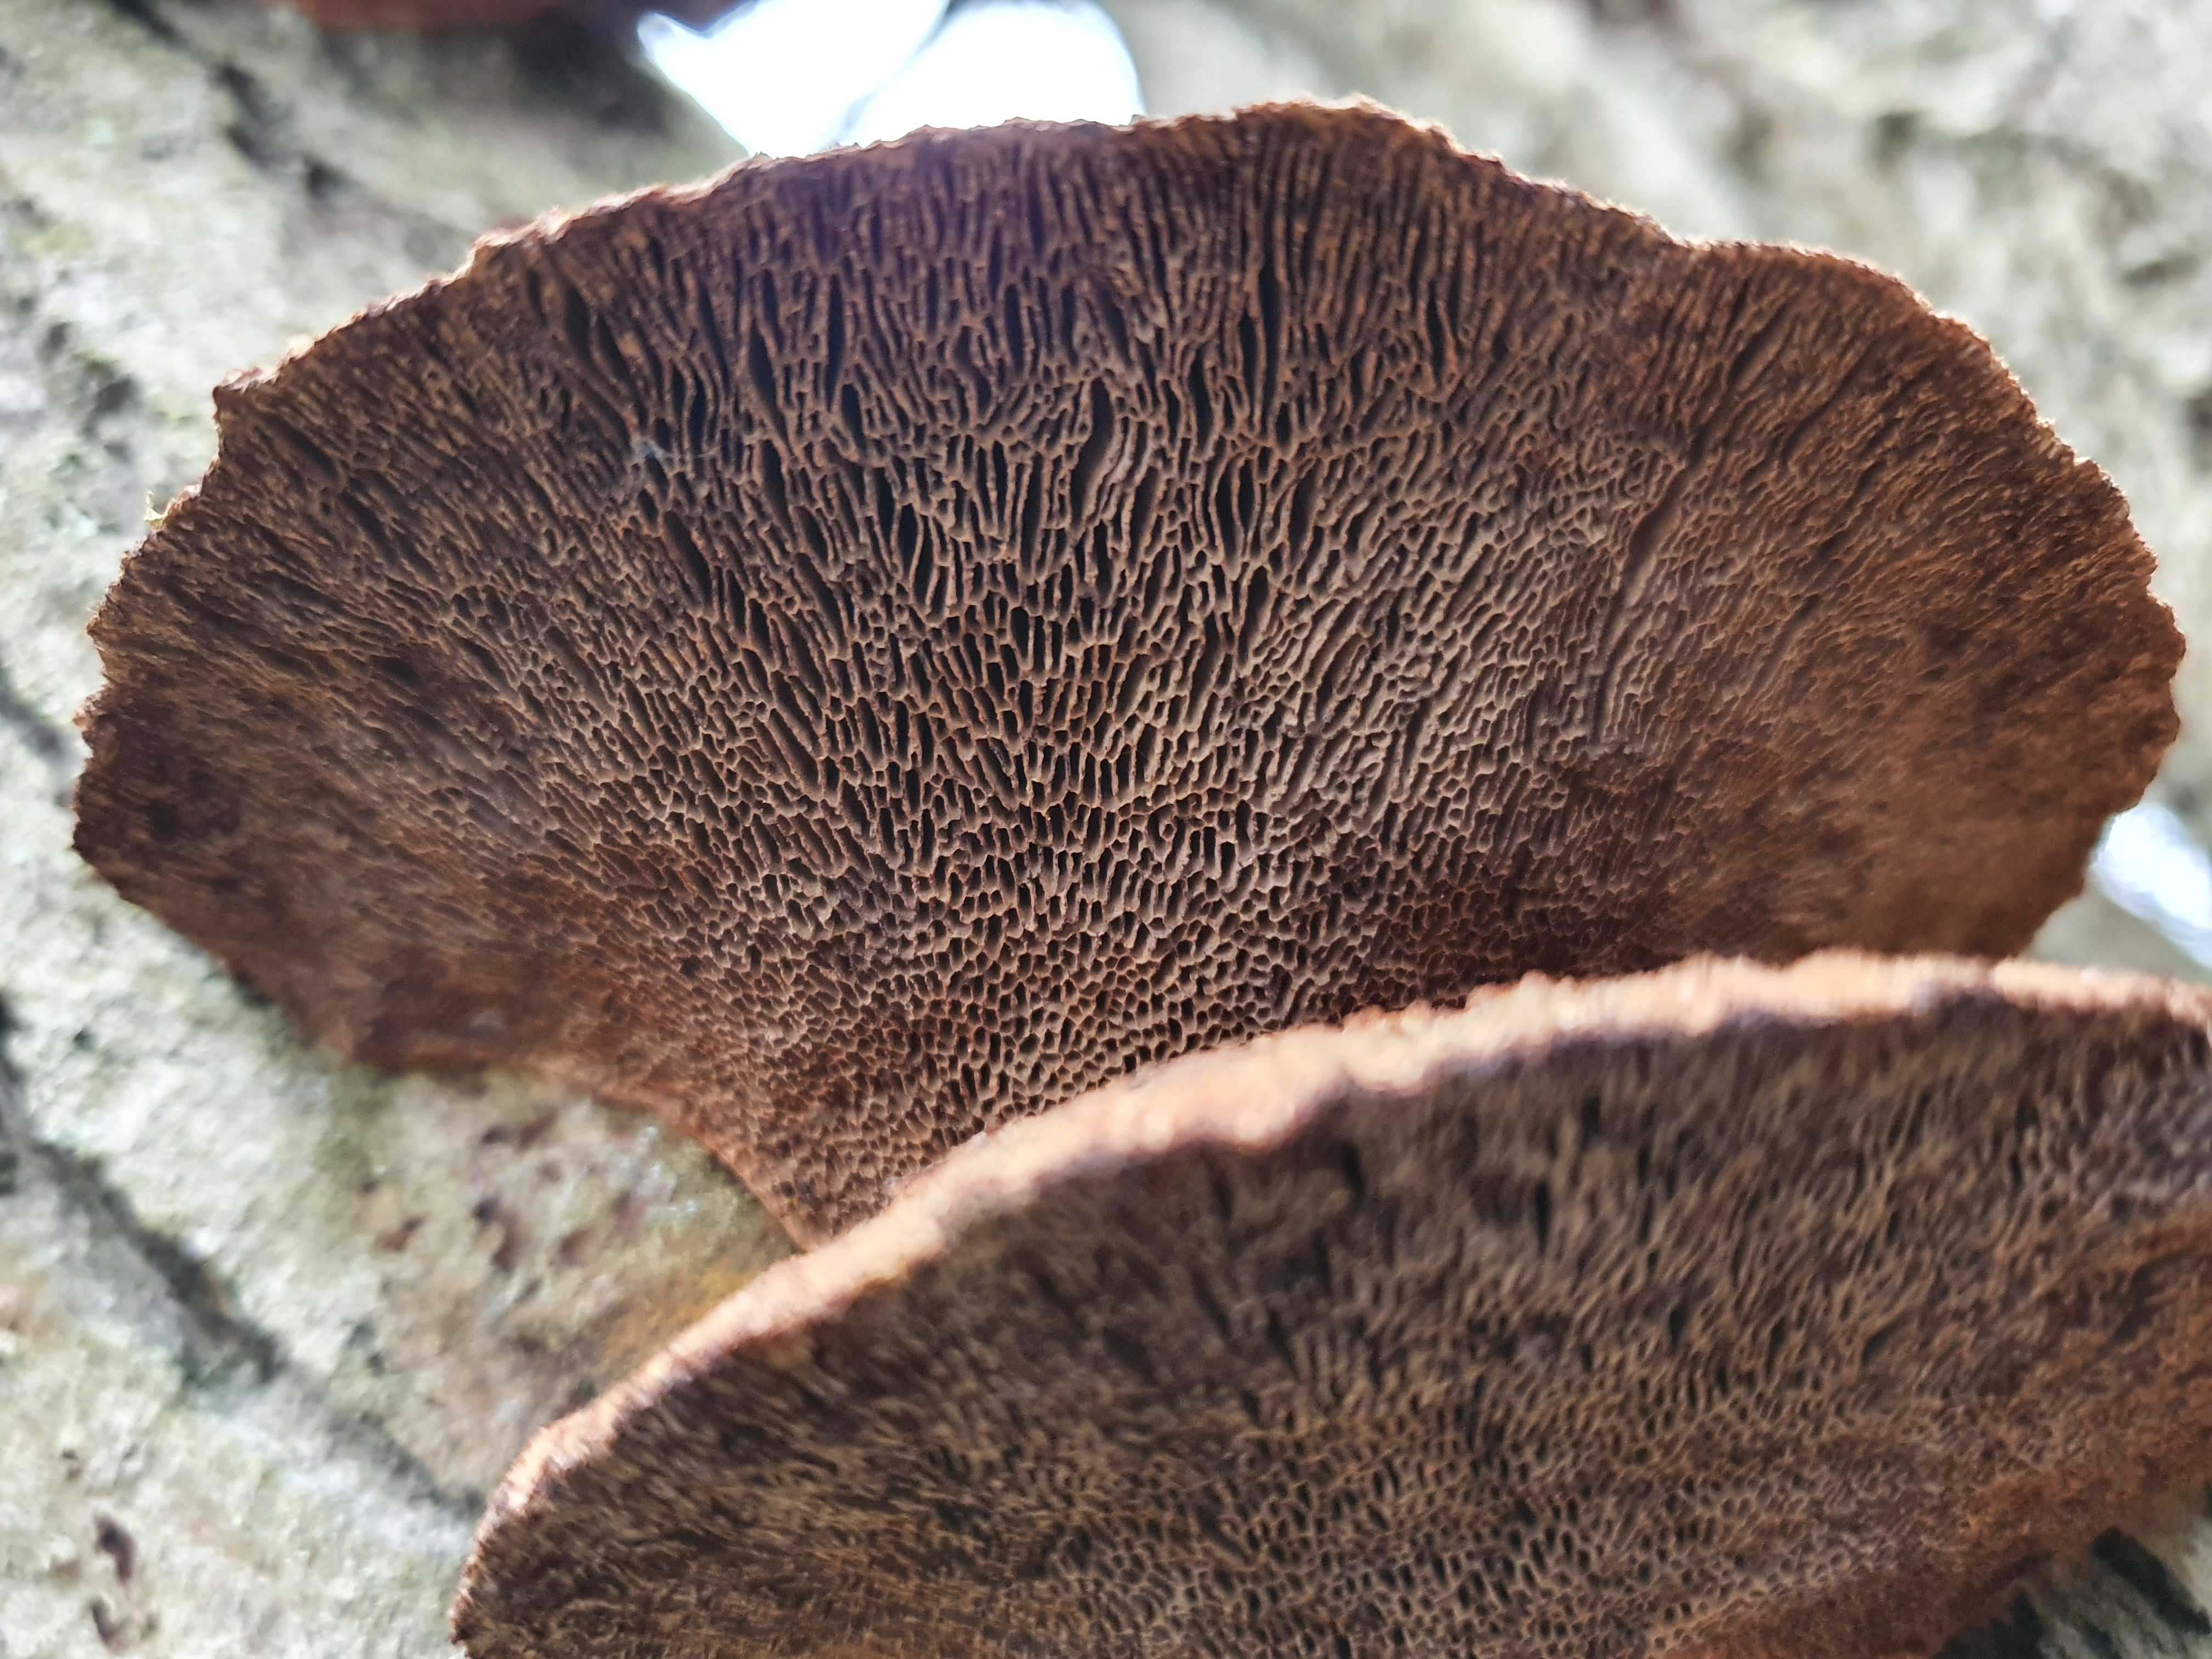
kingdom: Fungi
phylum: Basidiomycota
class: Agaricomycetes
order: Polyporales
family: Polyporaceae
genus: Daedaleopsis
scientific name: Daedaleopsis confragosa
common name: rødmende læderporesvamp
